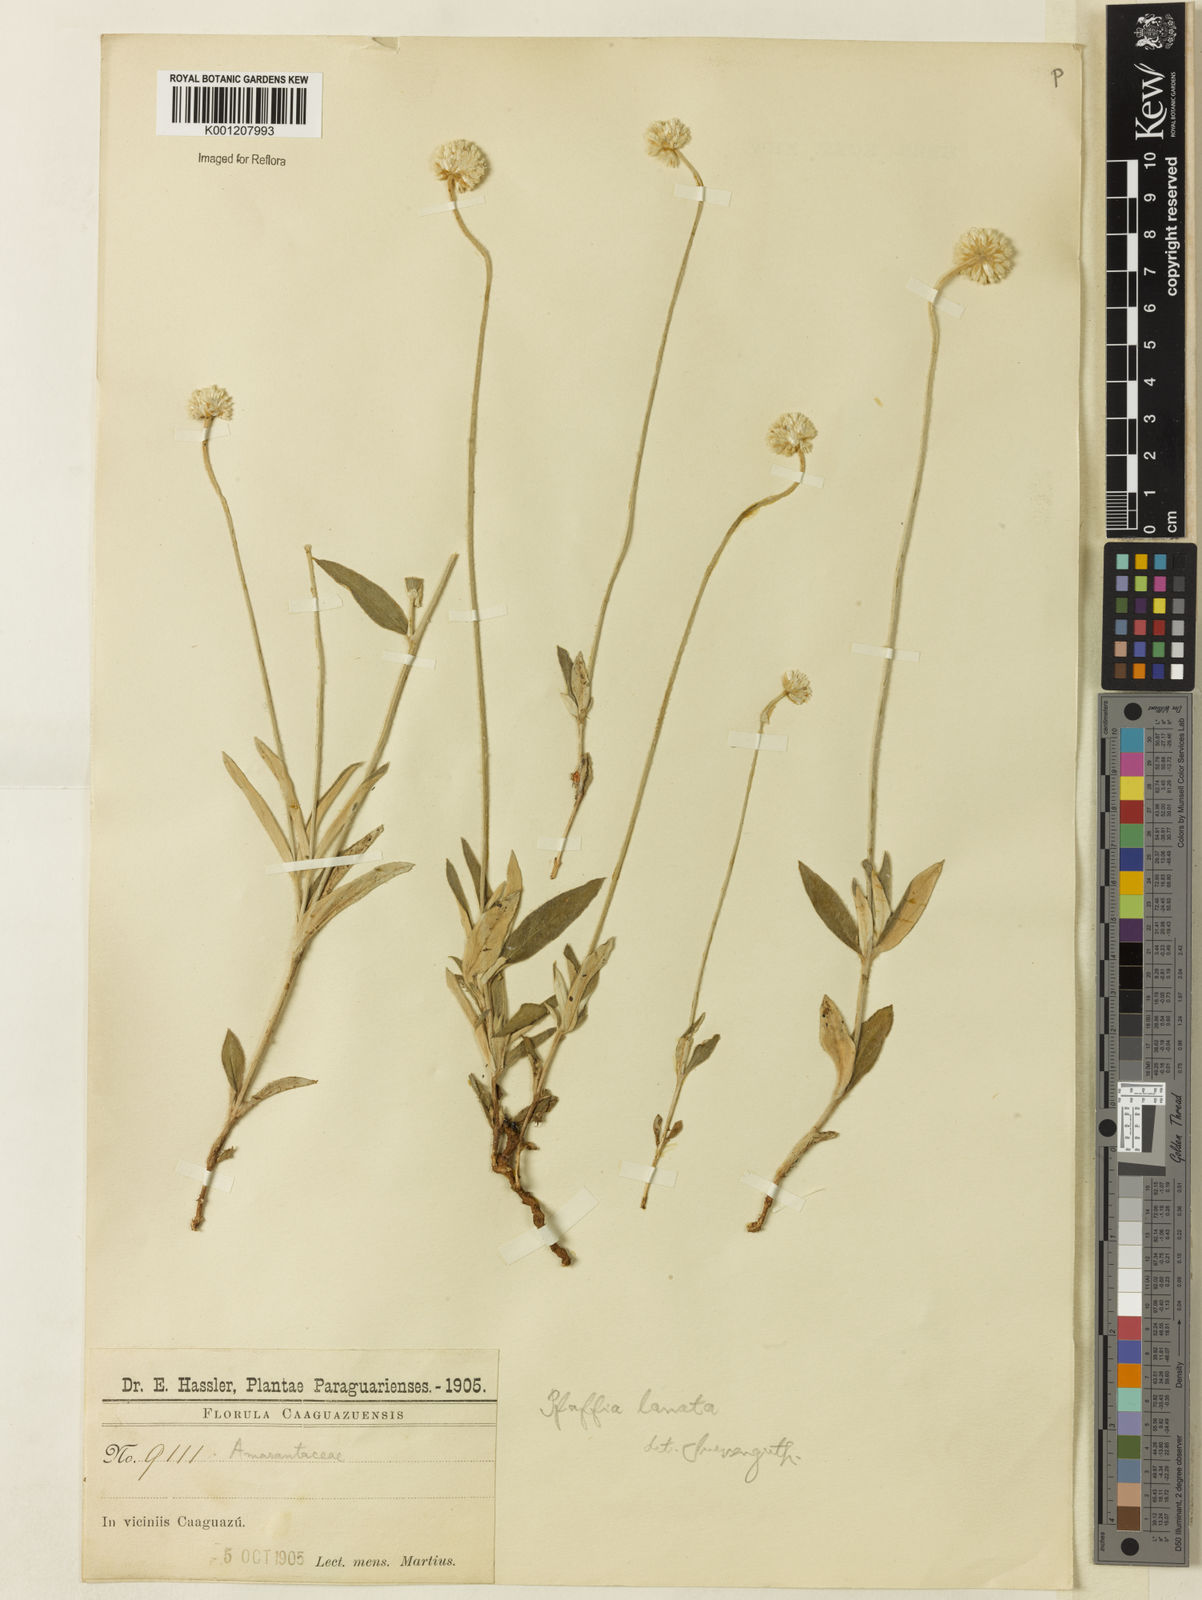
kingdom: Plantae
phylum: Tracheophyta
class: Magnoliopsida
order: Caryophyllales
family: Amaranthaceae
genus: Pfaffia
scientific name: Pfaffia gnaphalioides
